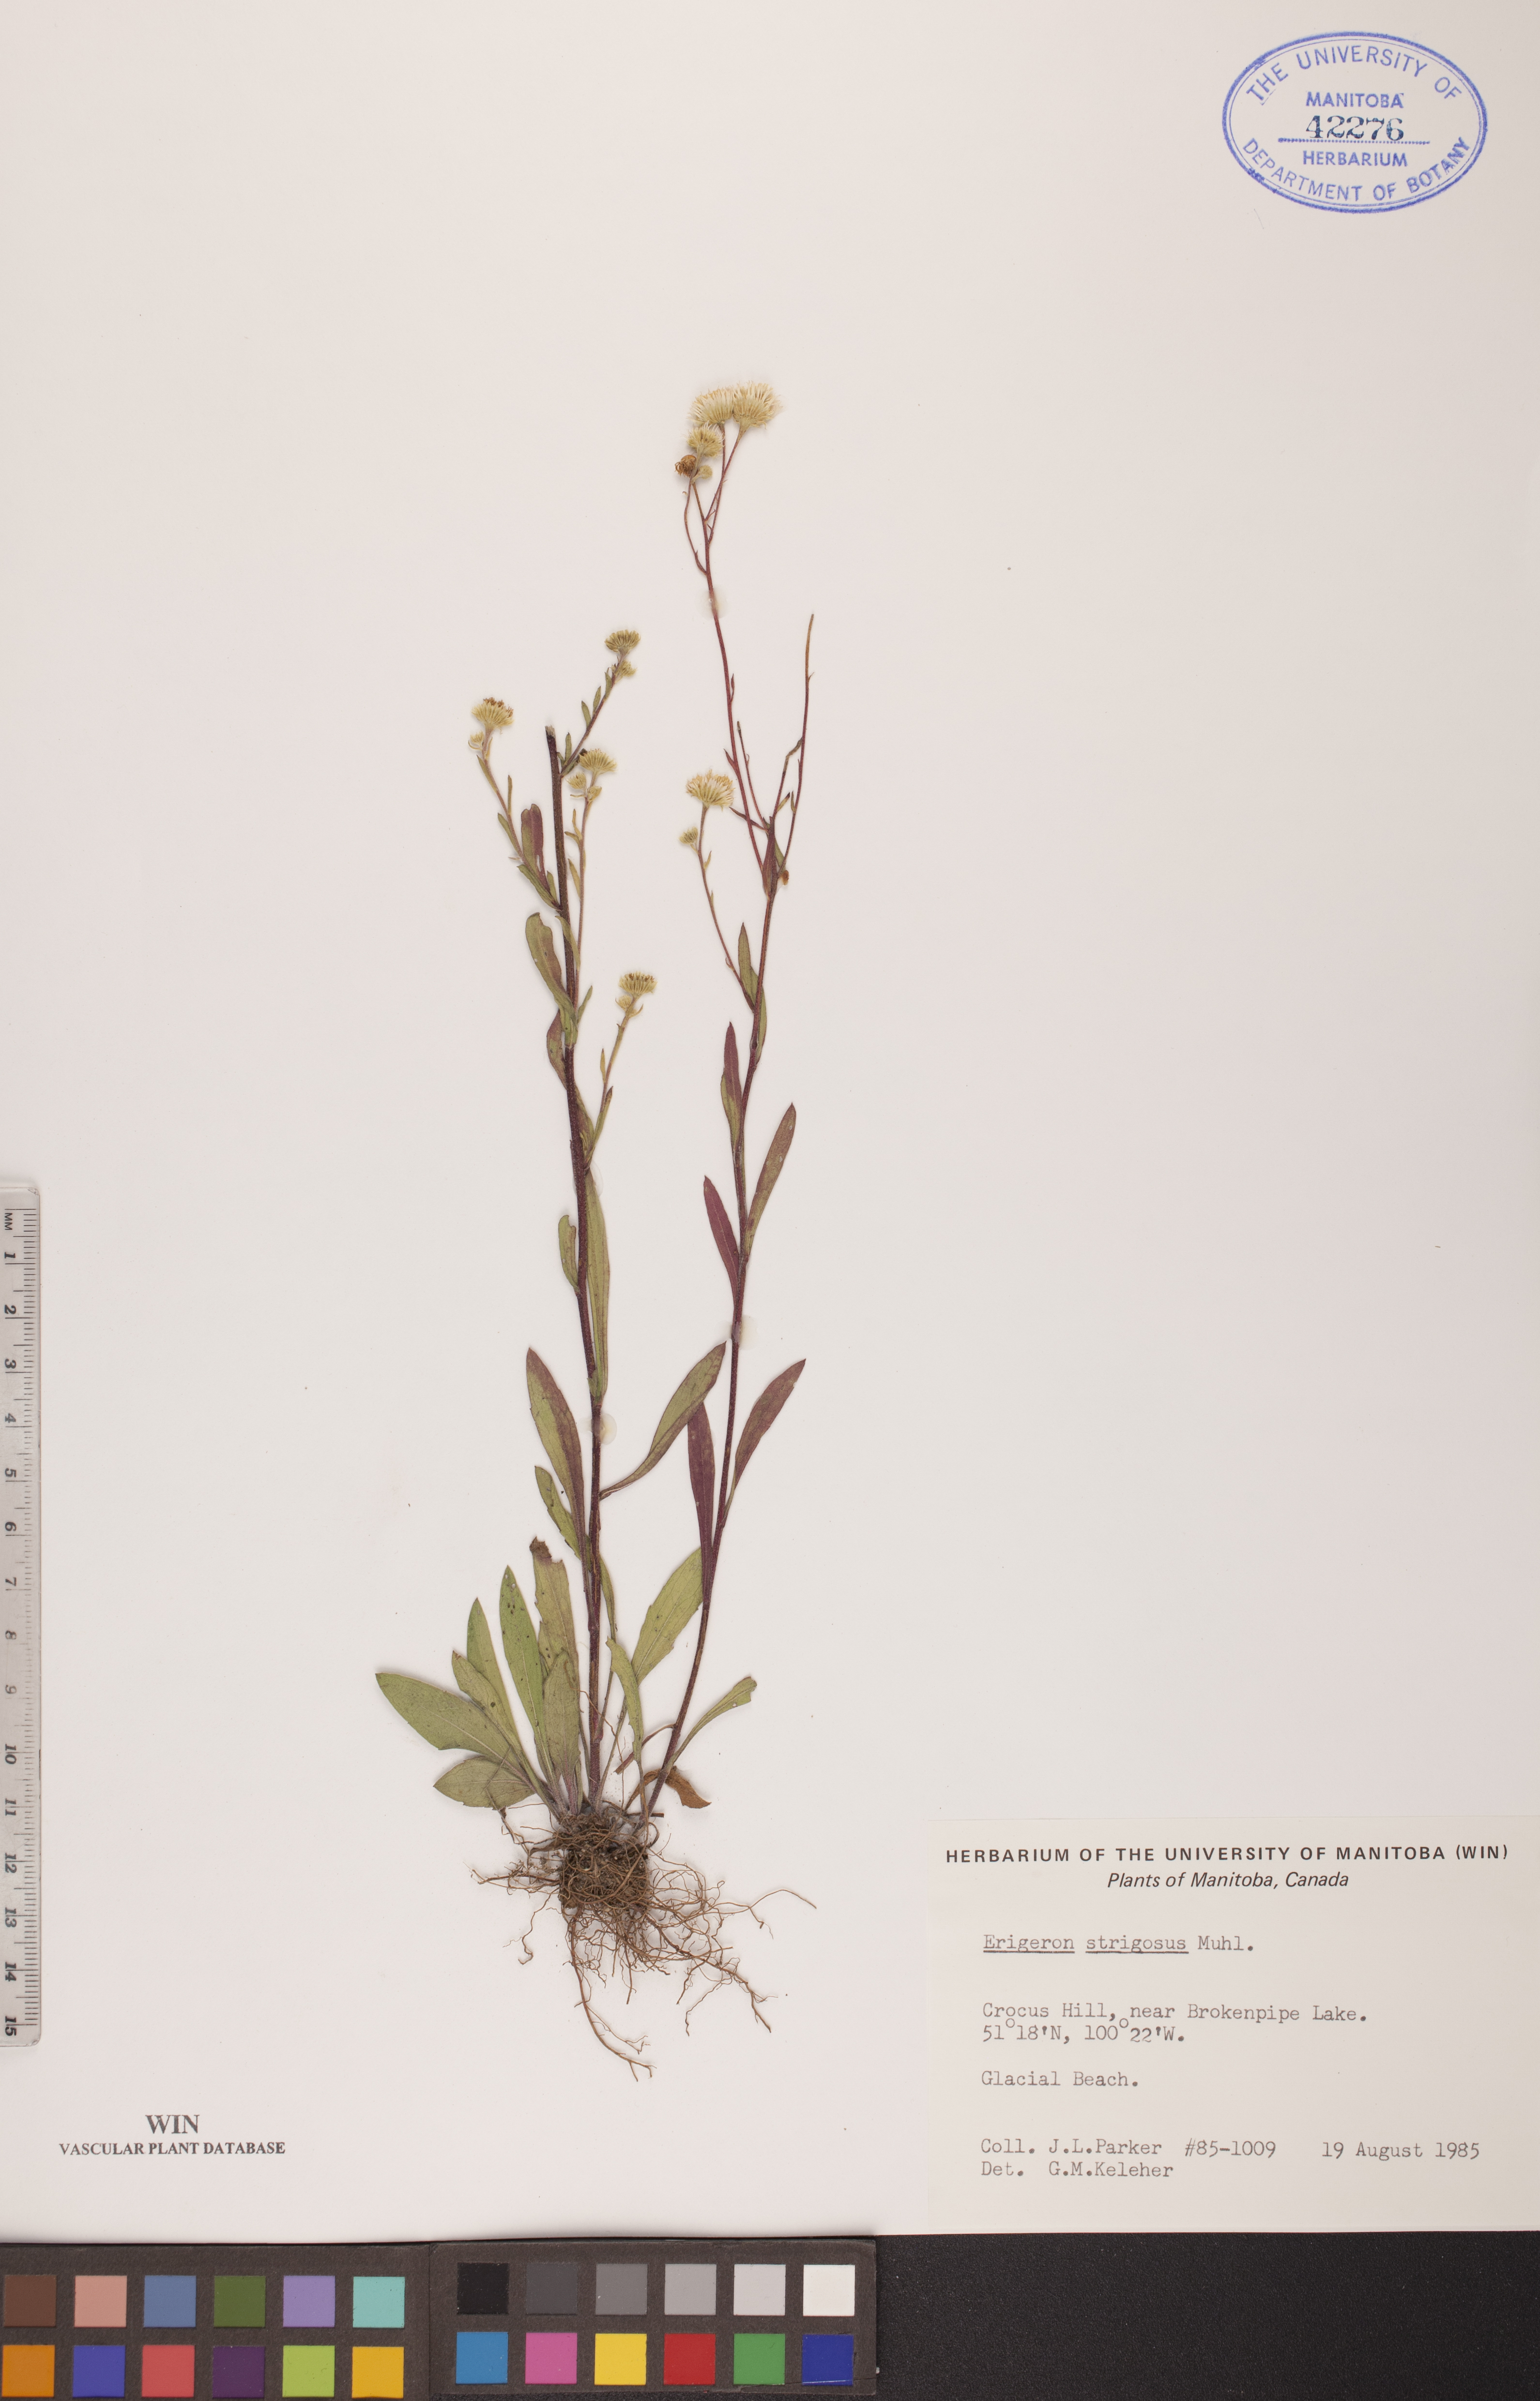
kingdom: Plantae
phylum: Tracheophyta
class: Magnoliopsida
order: Asterales
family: Asteraceae
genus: Erigeron
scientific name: Erigeron strigosus
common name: Common eastern fleabane
